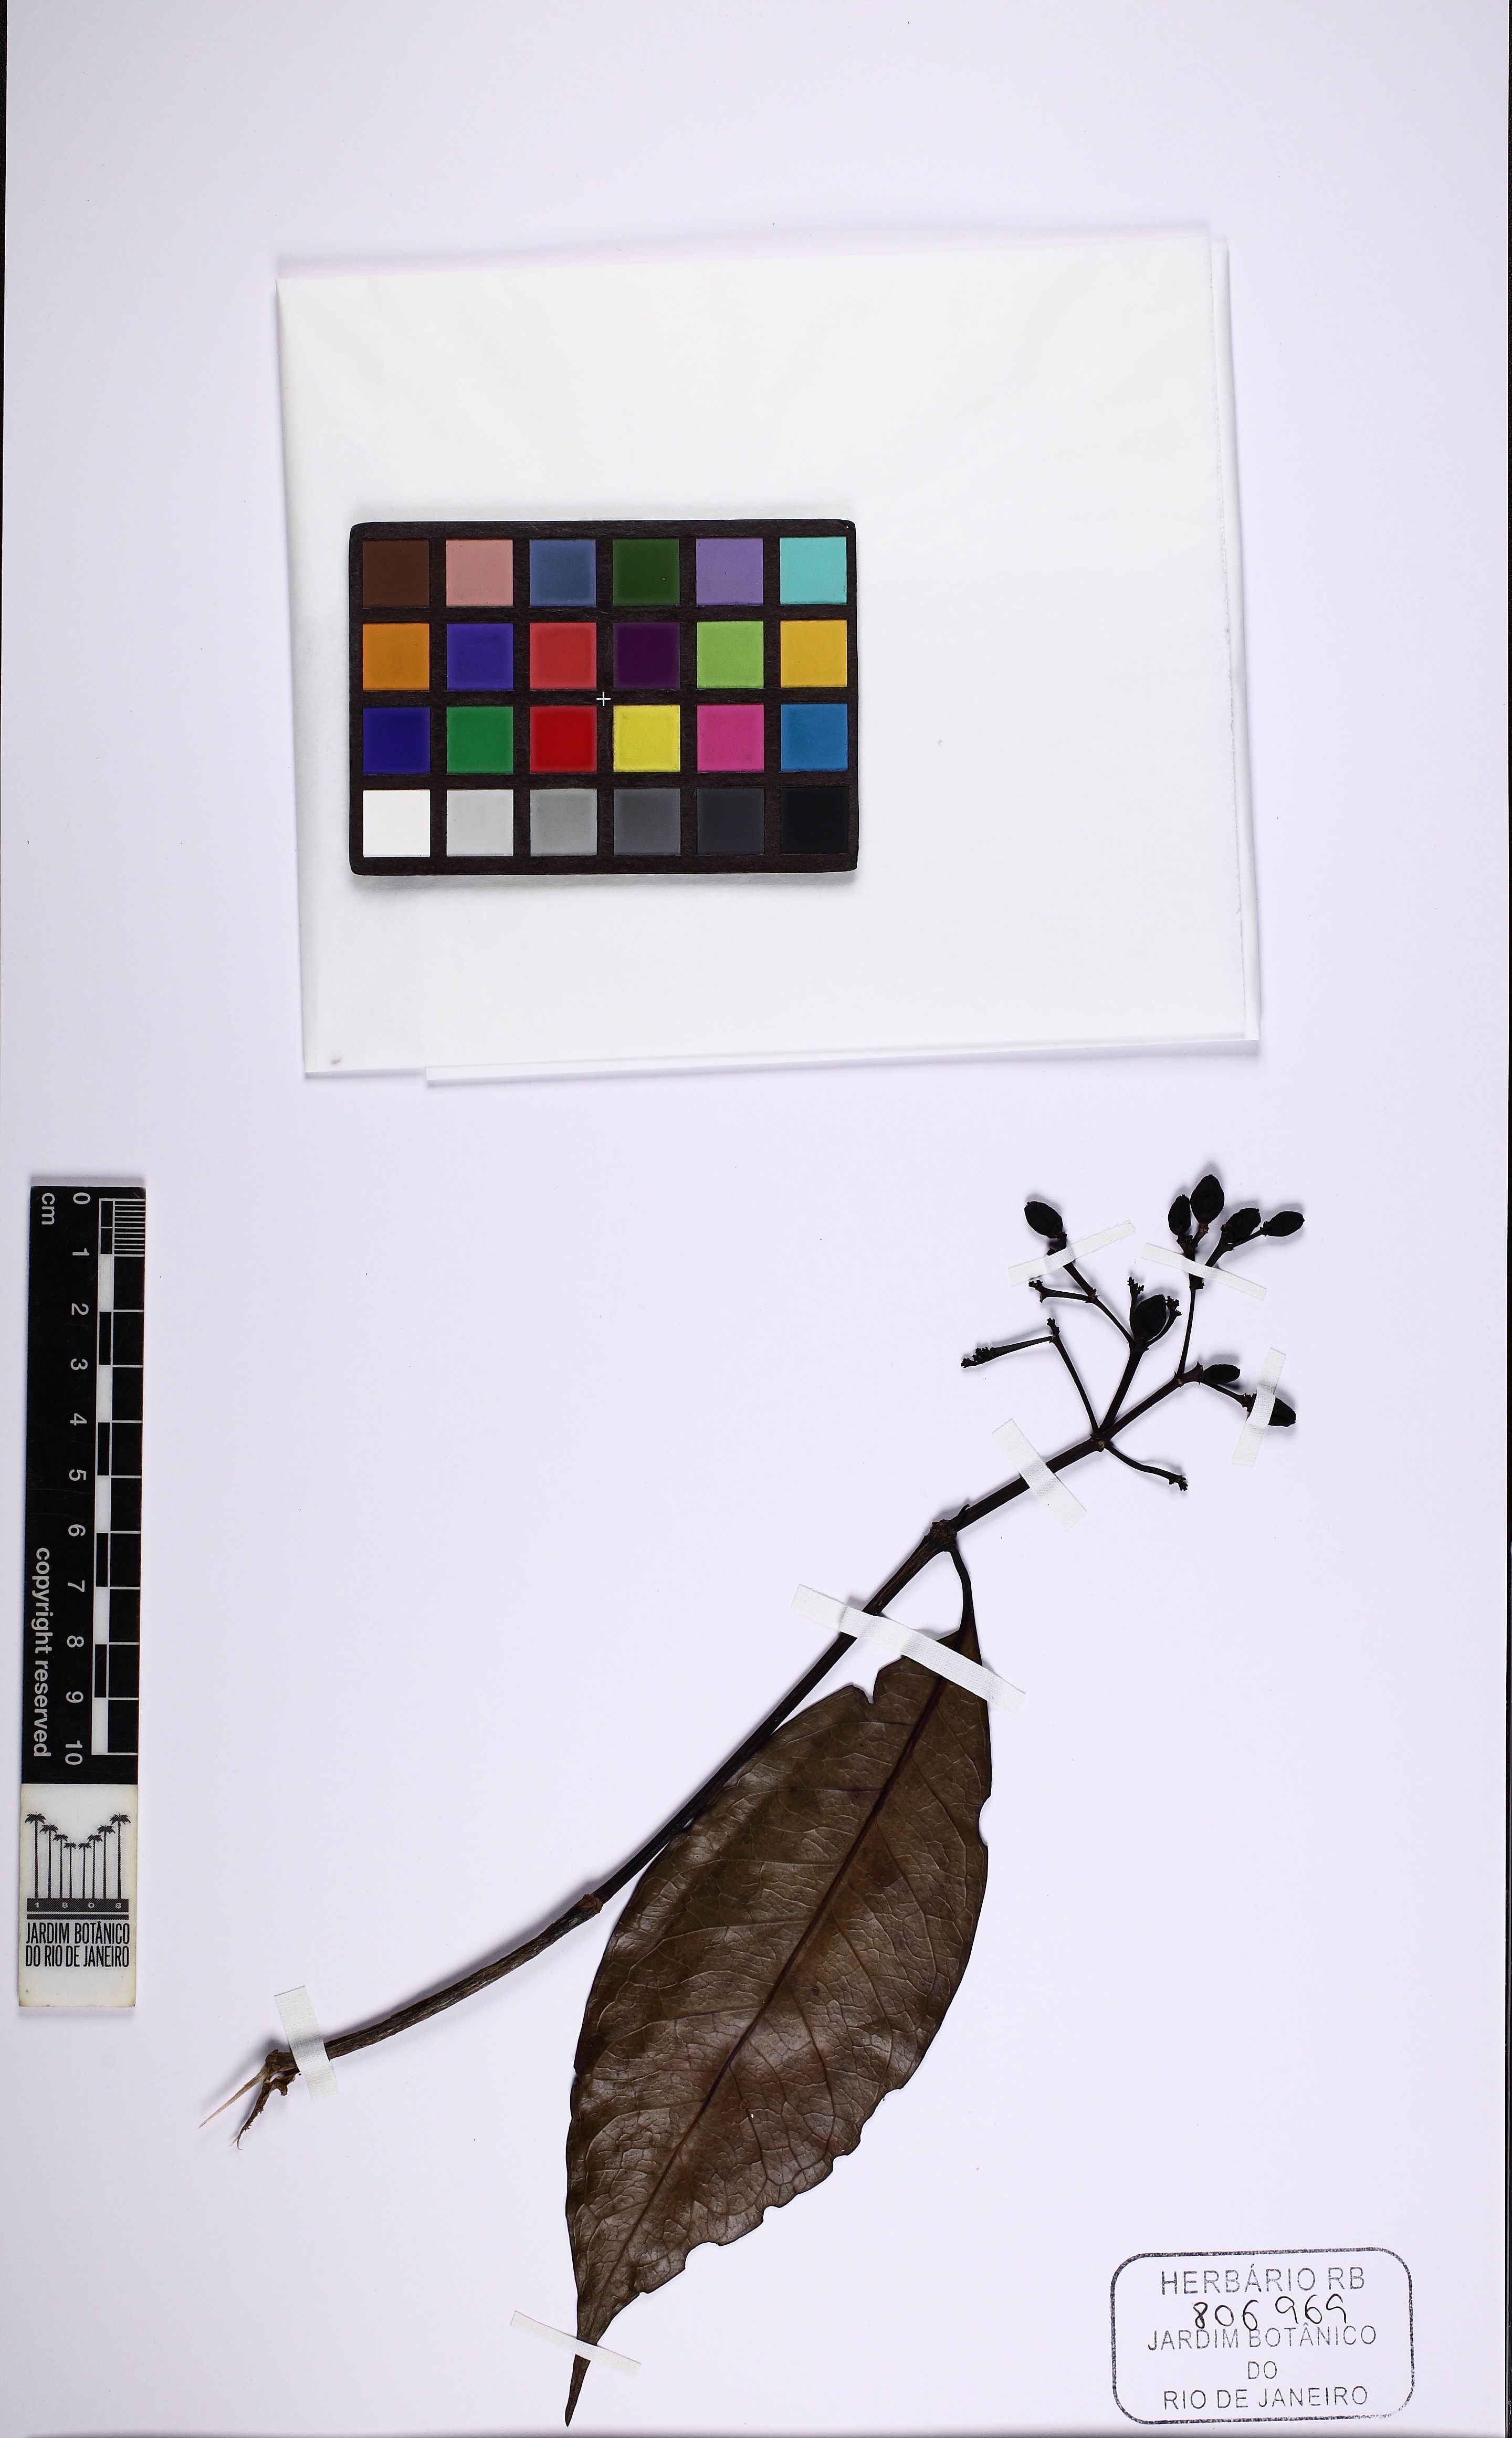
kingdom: Plantae
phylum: Tracheophyta
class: Magnoliopsida
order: Gentianales
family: Rubiaceae
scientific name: Rubiaceae
